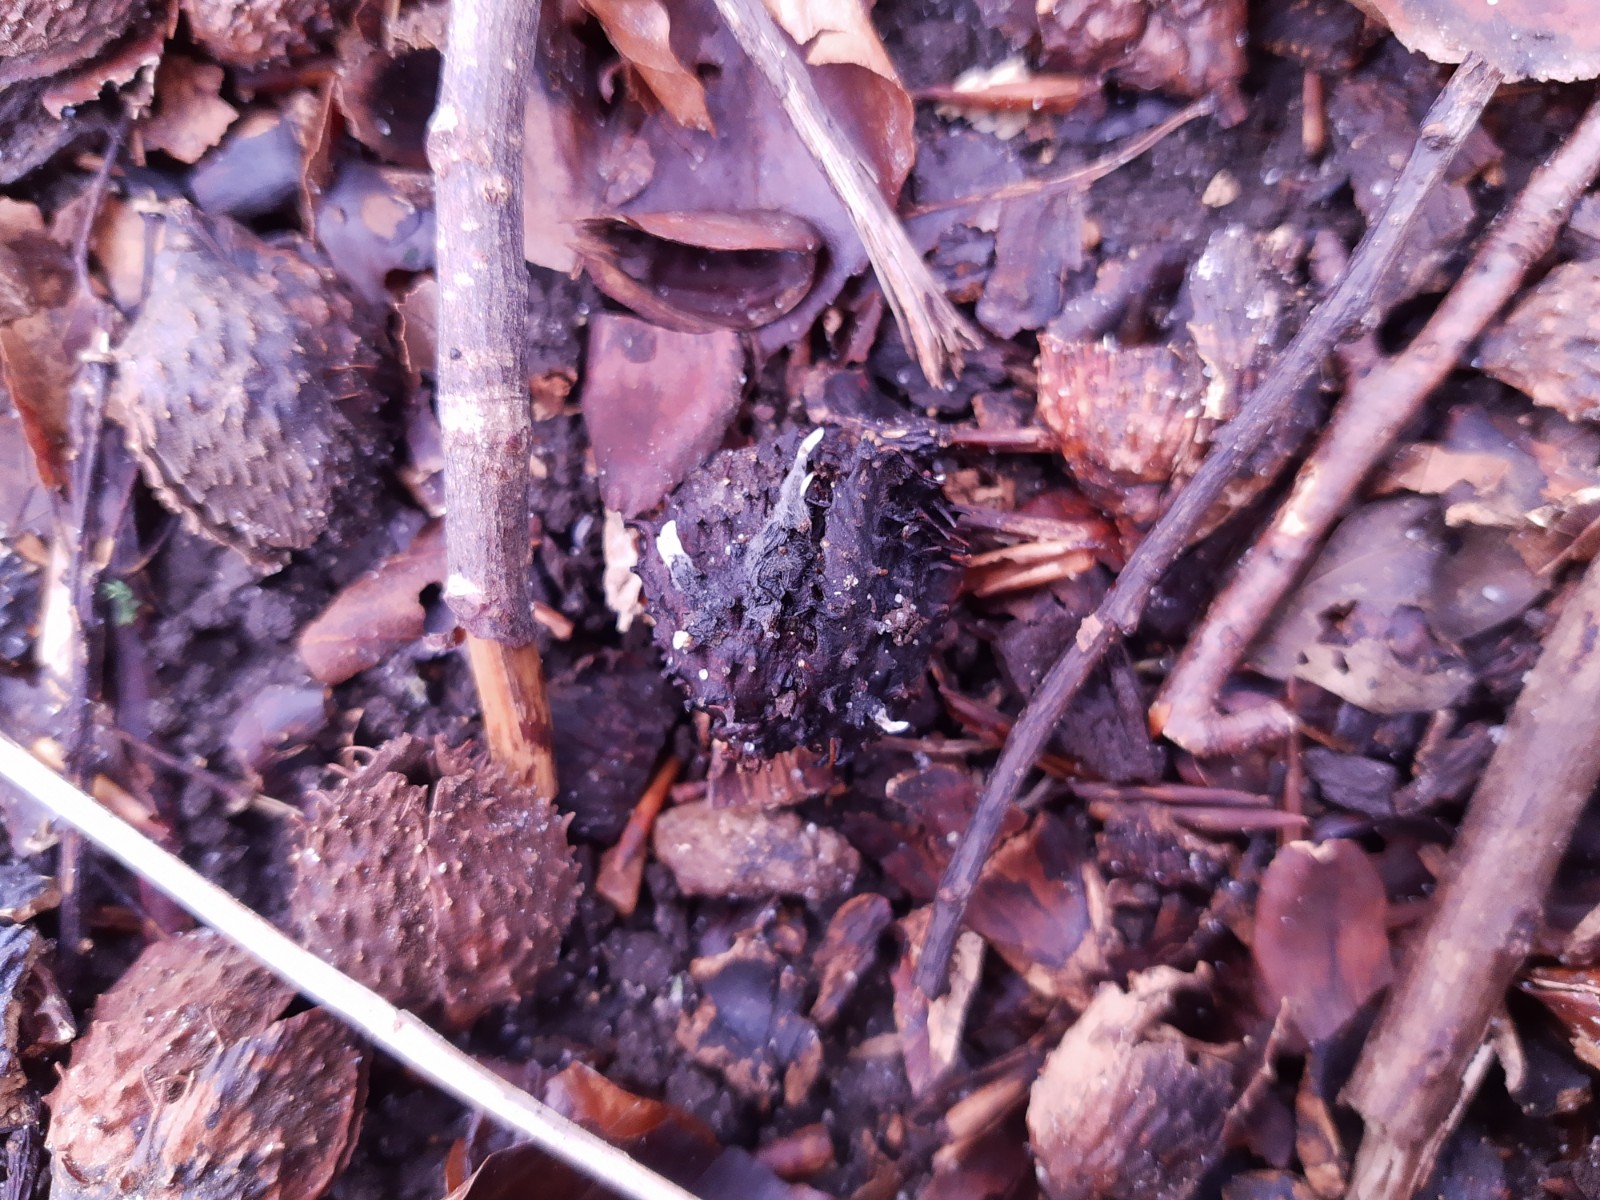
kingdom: Fungi
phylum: Ascomycota
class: Sordariomycetes
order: Xylariales
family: Xylariaceae
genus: Xylaria
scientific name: Xylaria carpophila
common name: bogskål-stødsvamp
